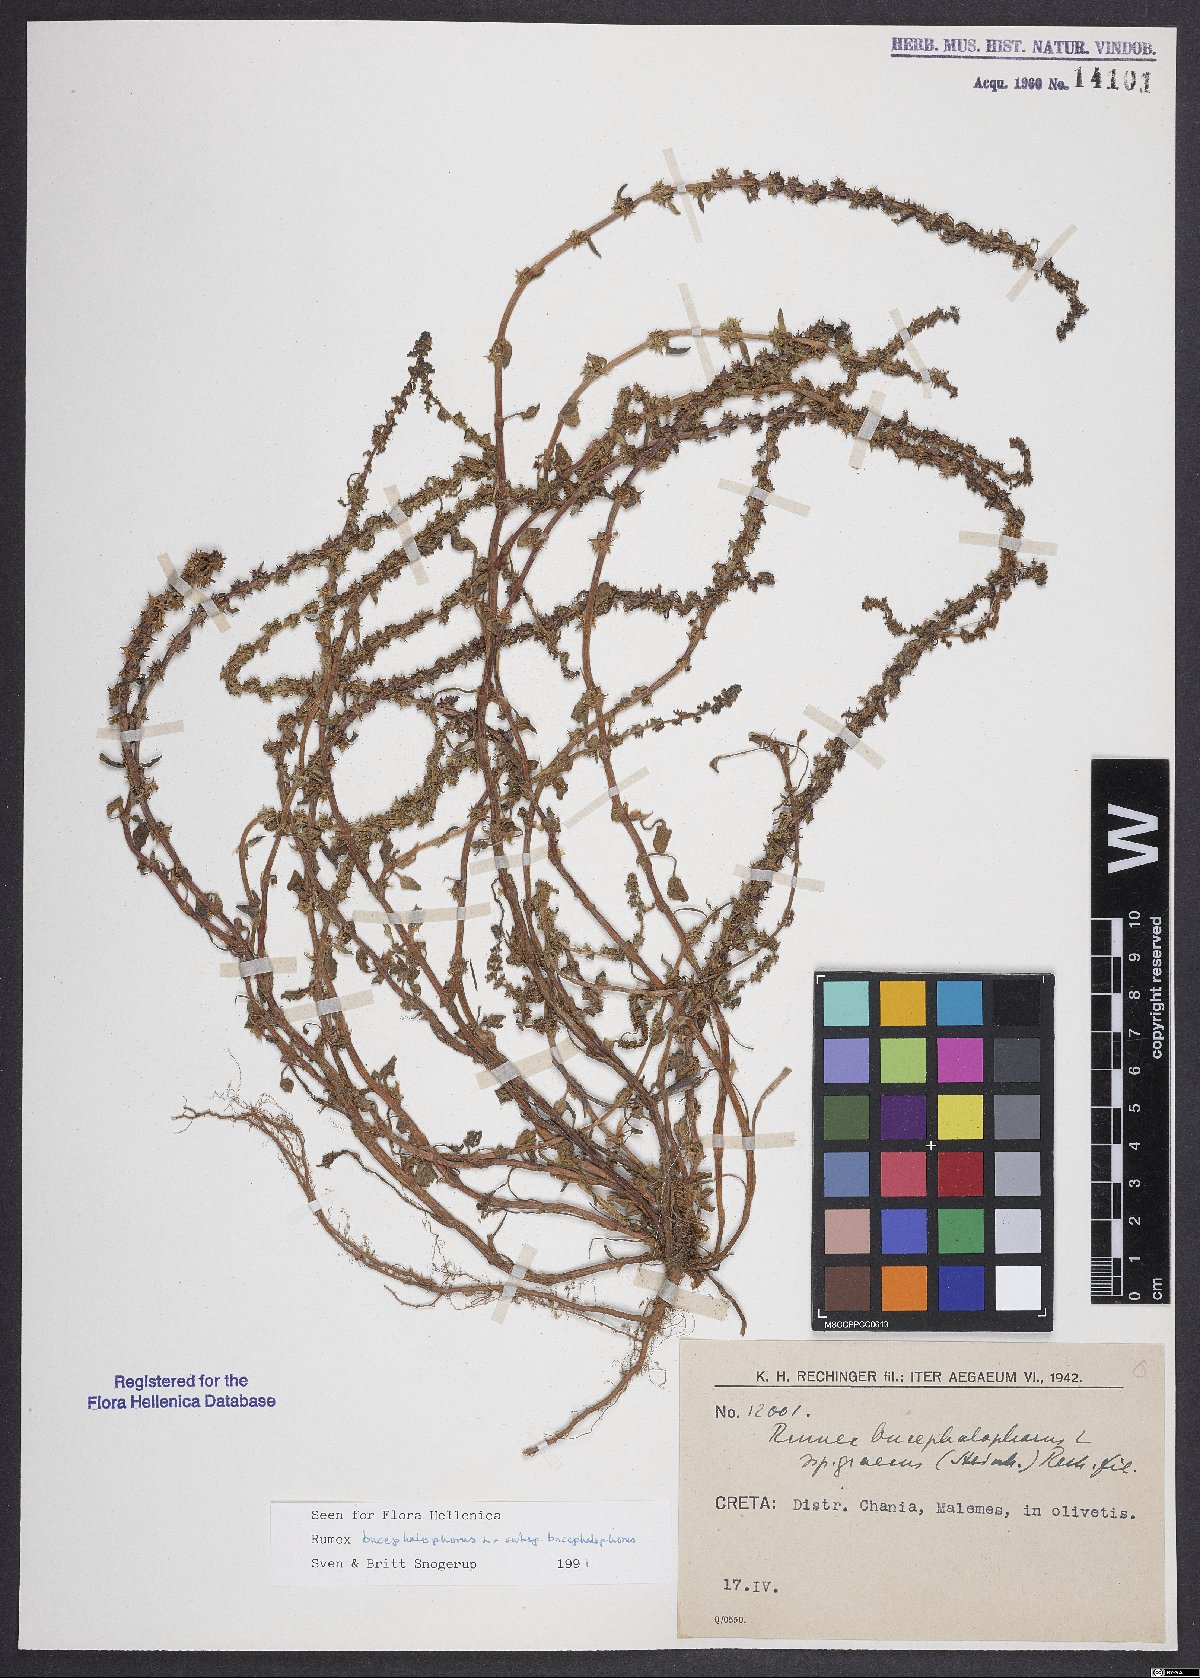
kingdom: Plantae
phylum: Tracheophyta
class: Magnoliopsida
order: Caryophyllales
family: Polygonaceae
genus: Rumex
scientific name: Rumex bucephalophorus
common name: Red dock
